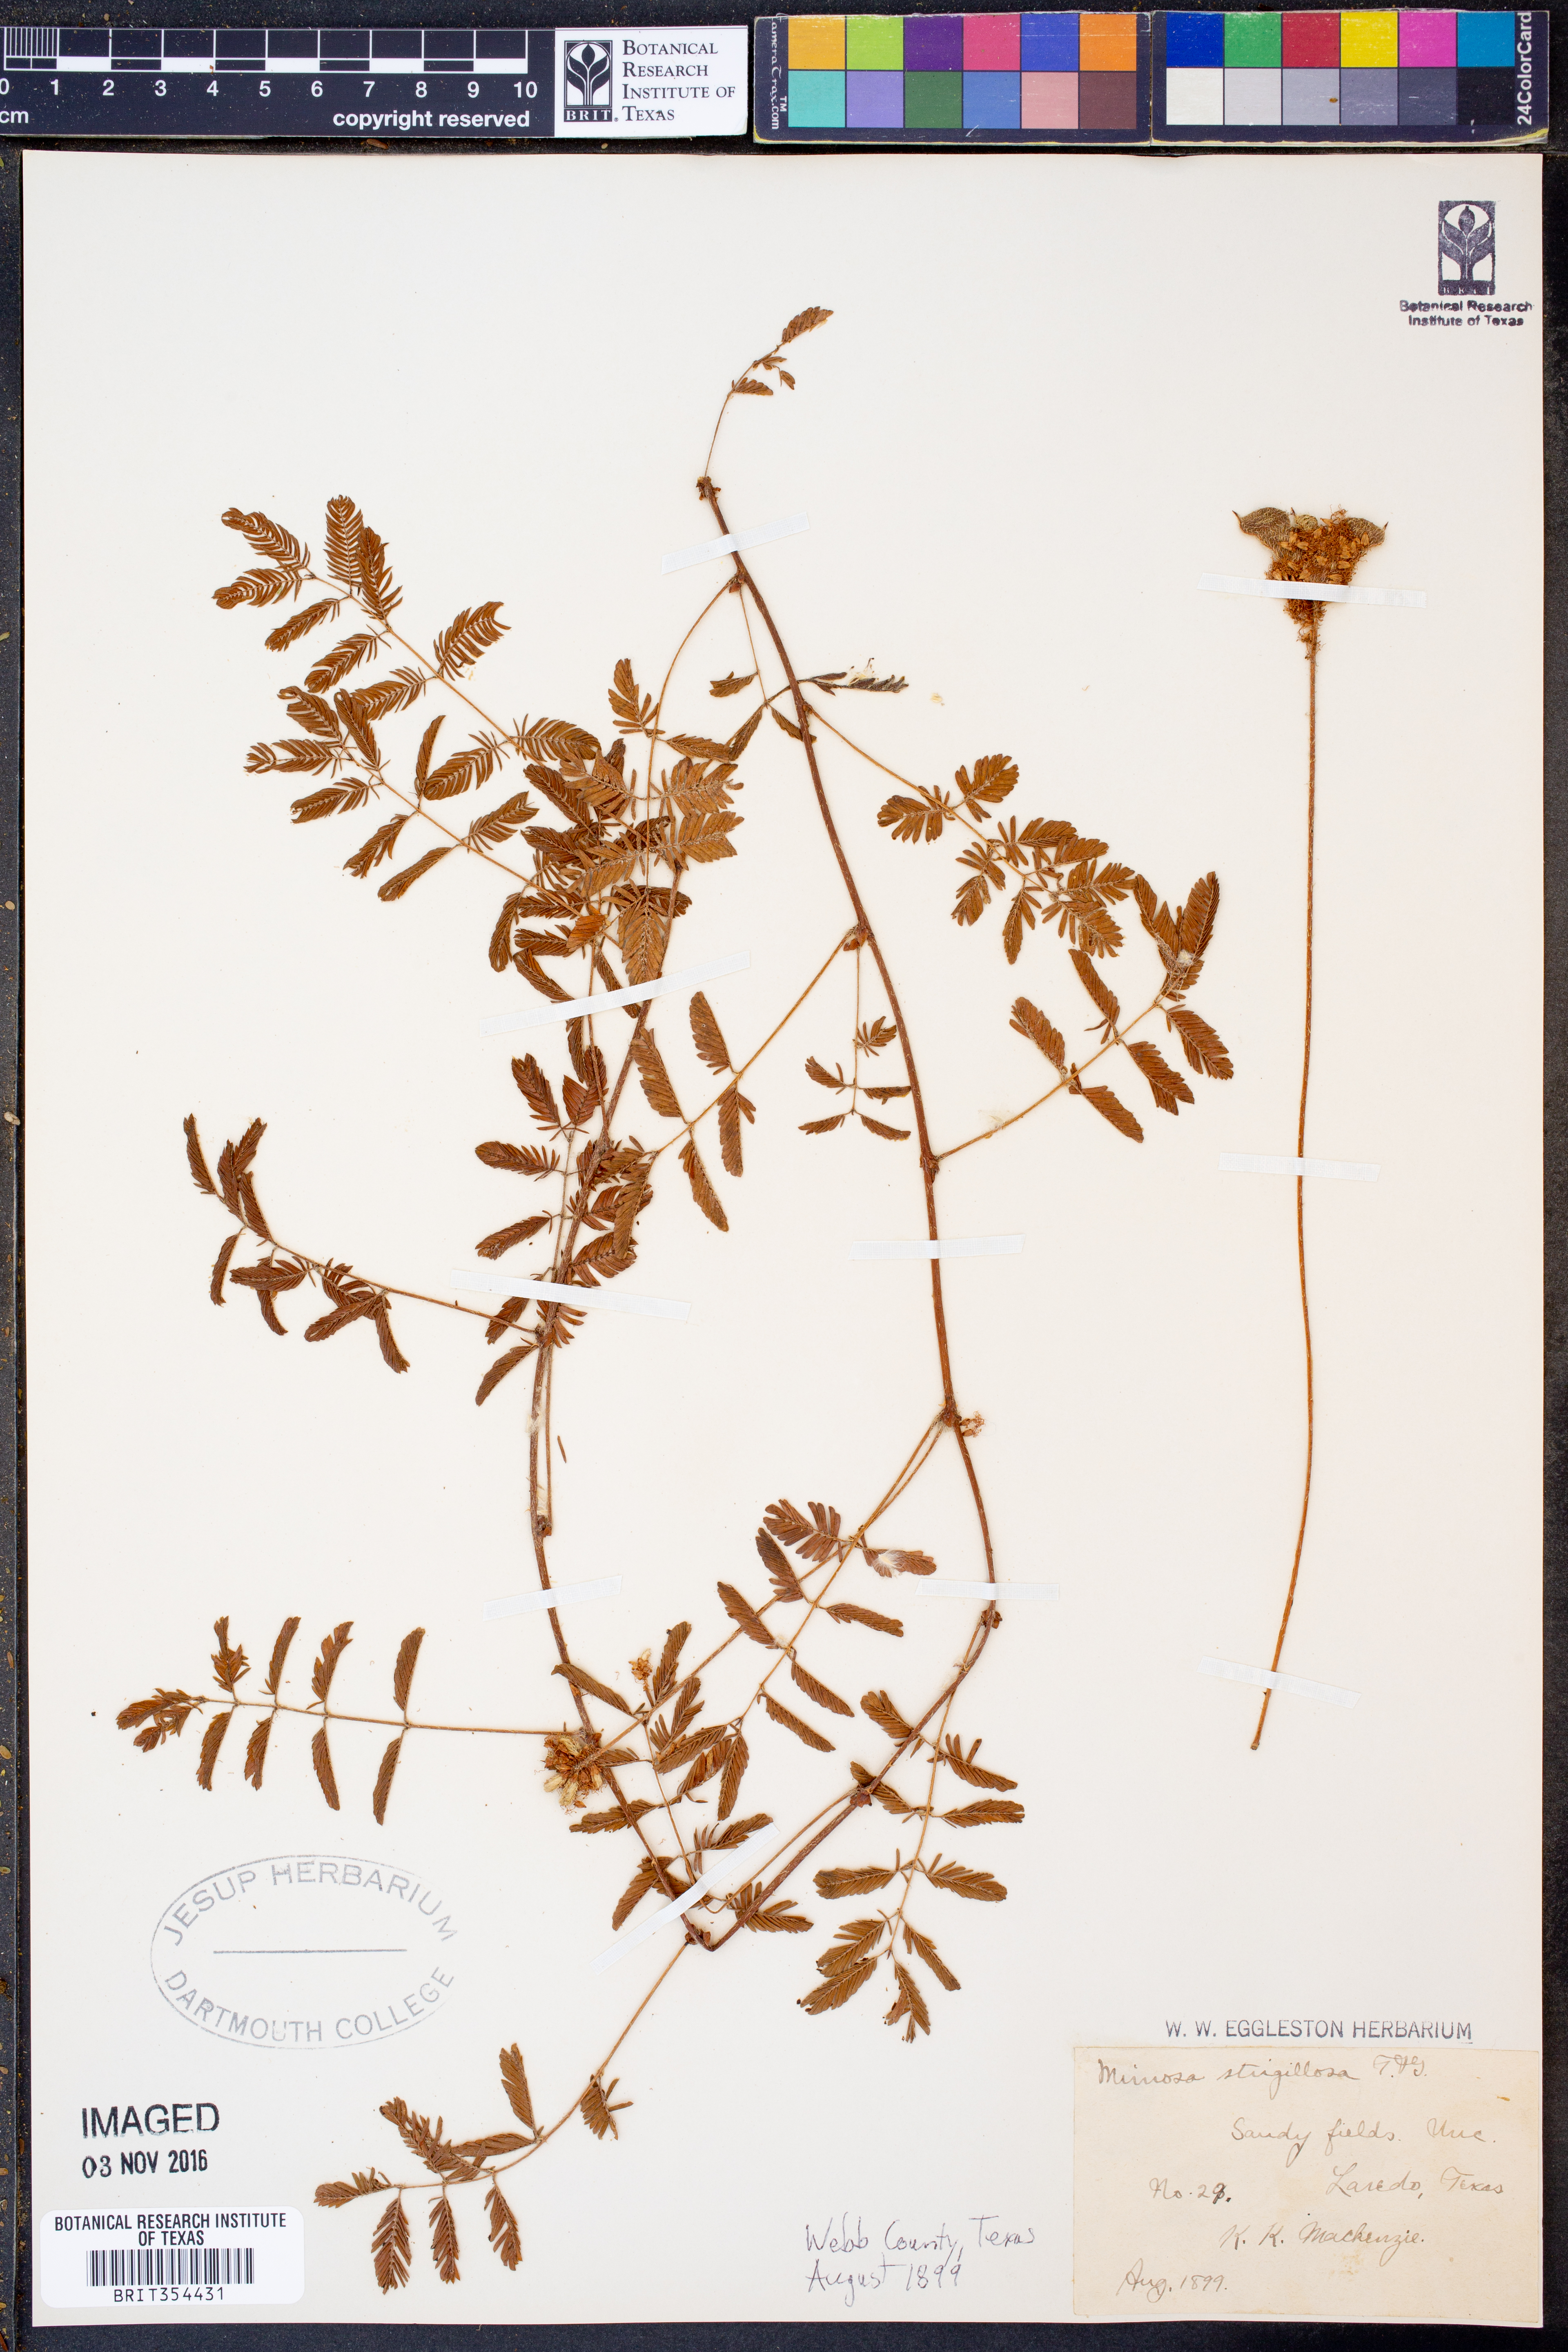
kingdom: Plantae
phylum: Tracheophyta
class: Magnoliopsida
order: Fabales
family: Fabaceae
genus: Mimosa
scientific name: Mimosa strigillosa
